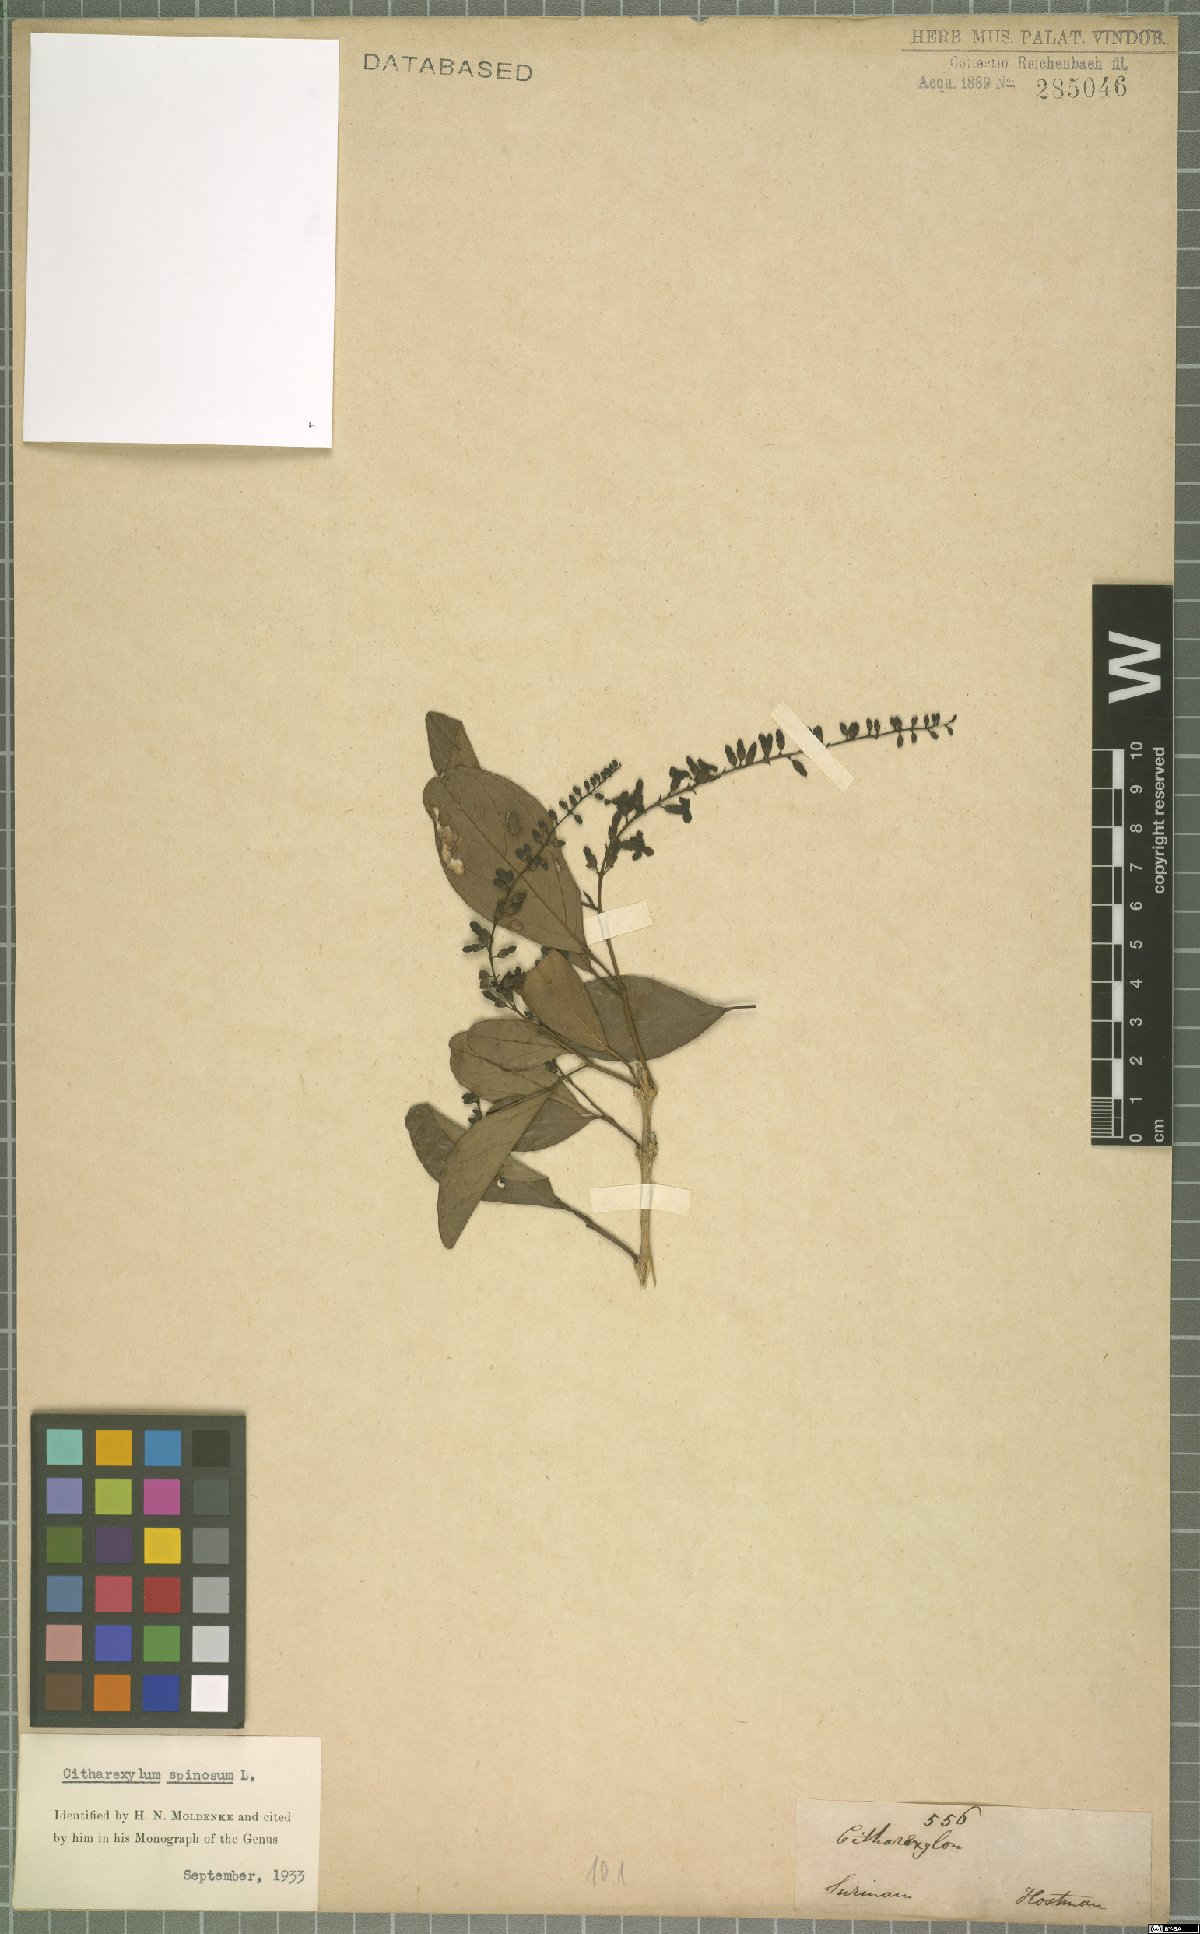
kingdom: Plantae
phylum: Tracheophyta
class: Magnoliopsida
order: Lamiales
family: Verbenaceae
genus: Citharexylum
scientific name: Citharexylum spinosum
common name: Fiddlewood
